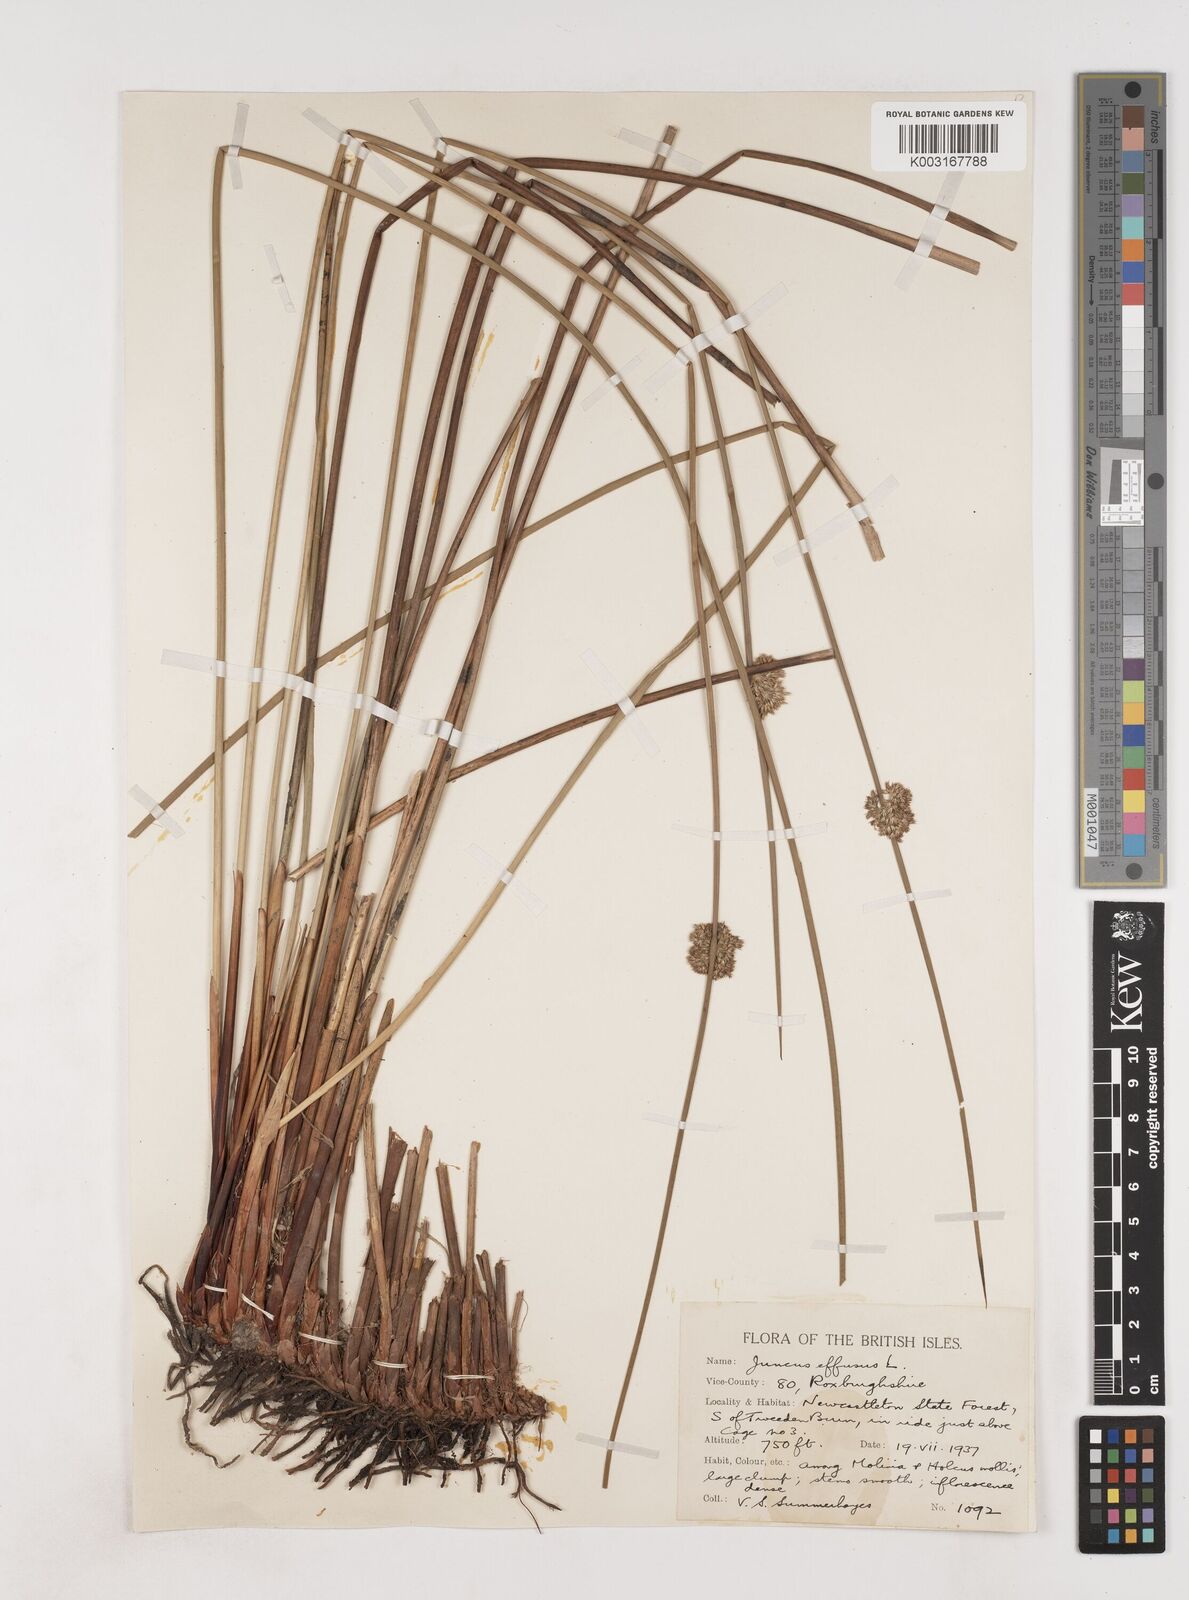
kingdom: Plantae
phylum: Tracheophyta
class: Liliopsida
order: Poales
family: Juncaceae
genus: Juncus
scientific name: Juncus effusus
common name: Soft rush
